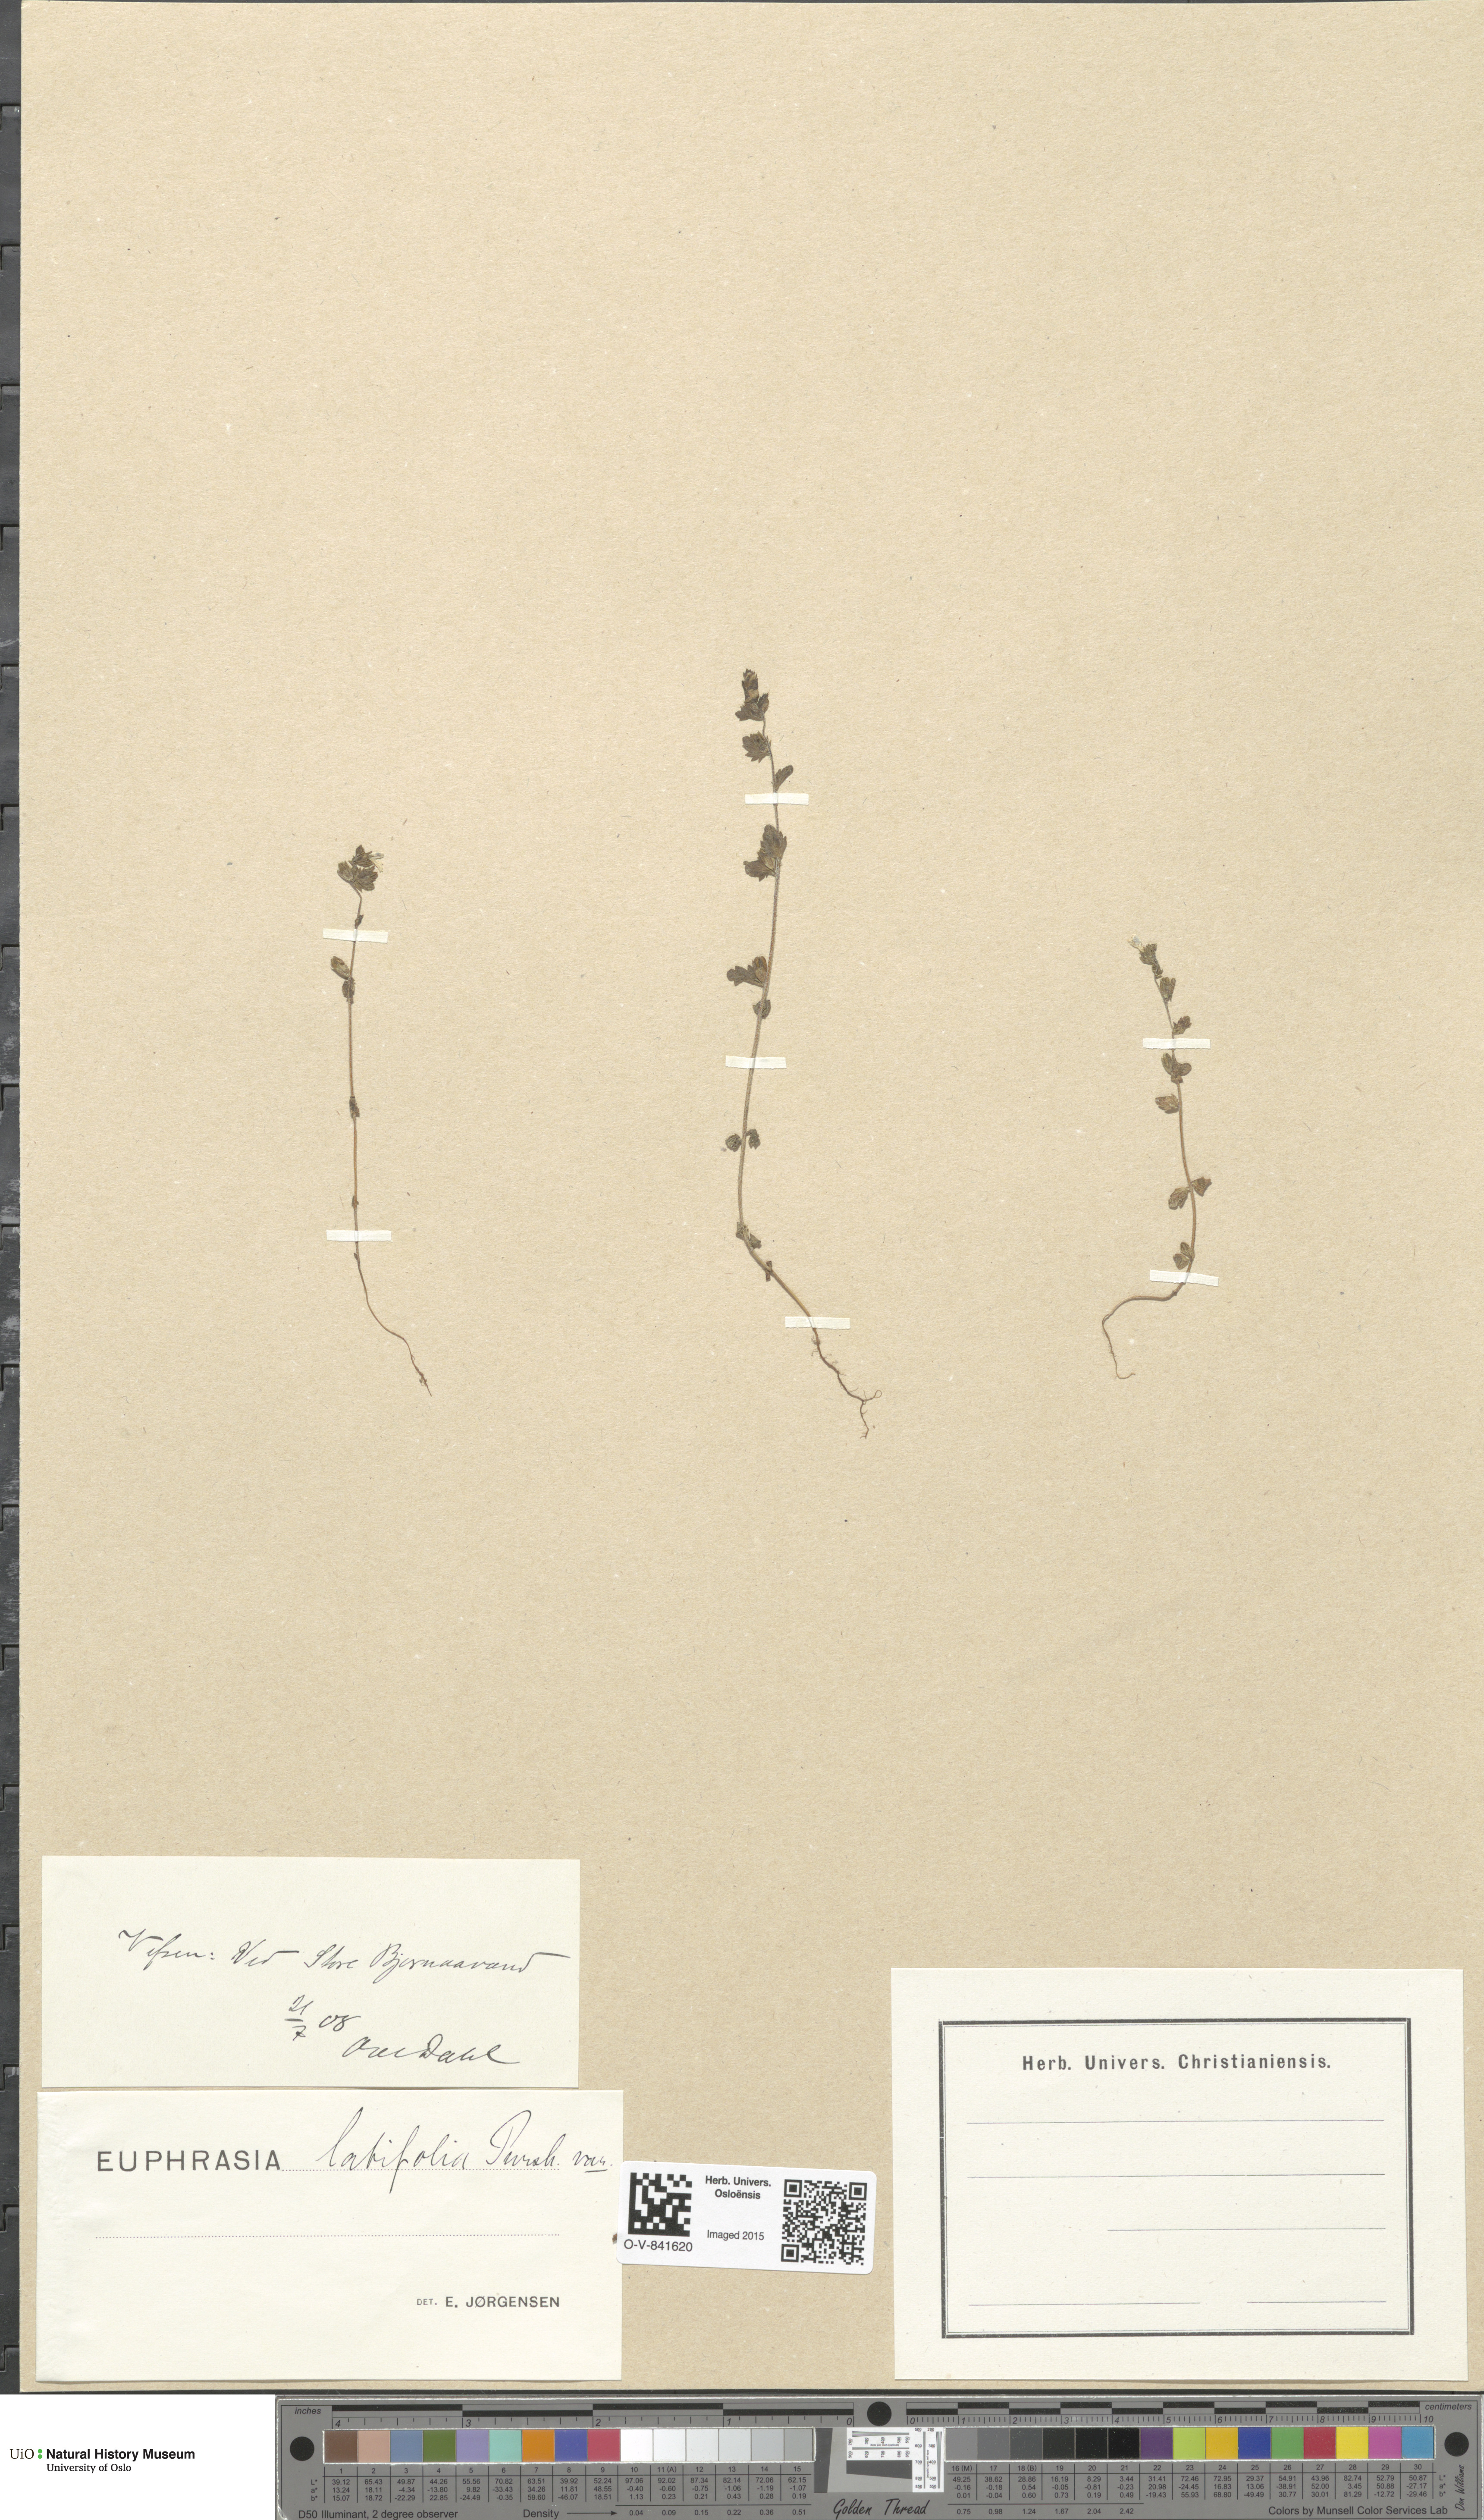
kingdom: Plantae
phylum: Tracheophyta
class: Magnoliopsida
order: Lamiales
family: Orobanchaceae
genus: Euphrasia
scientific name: Euphrasia wettsteinii
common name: Wettstein's eyebright
